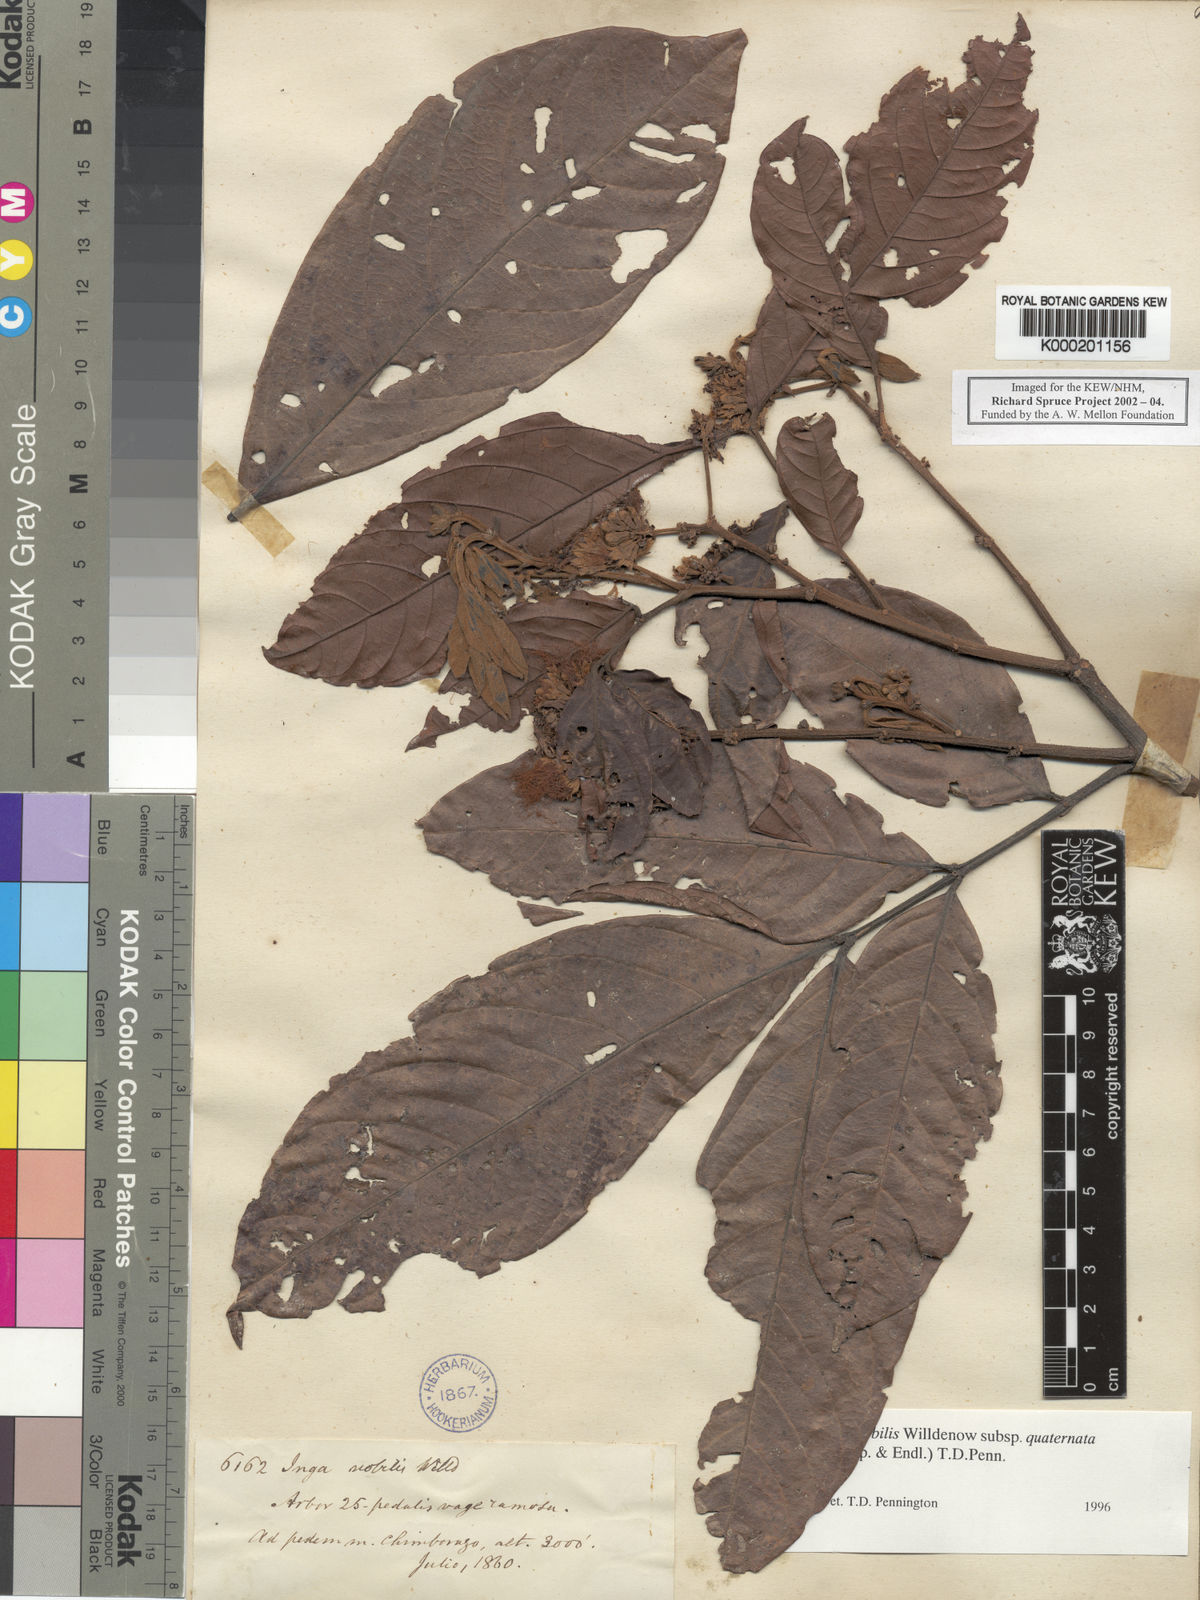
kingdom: Plantae
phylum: Tracheophyta
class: Magnoliopsida
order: Fabales
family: Fabaceae
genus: Inga
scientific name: Inga nobilis
